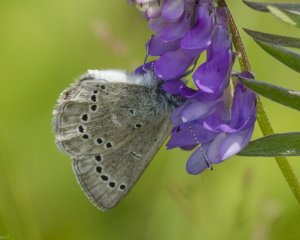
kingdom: Animalia
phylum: Arthropoda
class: Insecta
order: Lepidoptera
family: Lycaenidae
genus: Glaucopsyche
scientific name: Glaucopsyche lygdamus
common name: Silvery Blue
